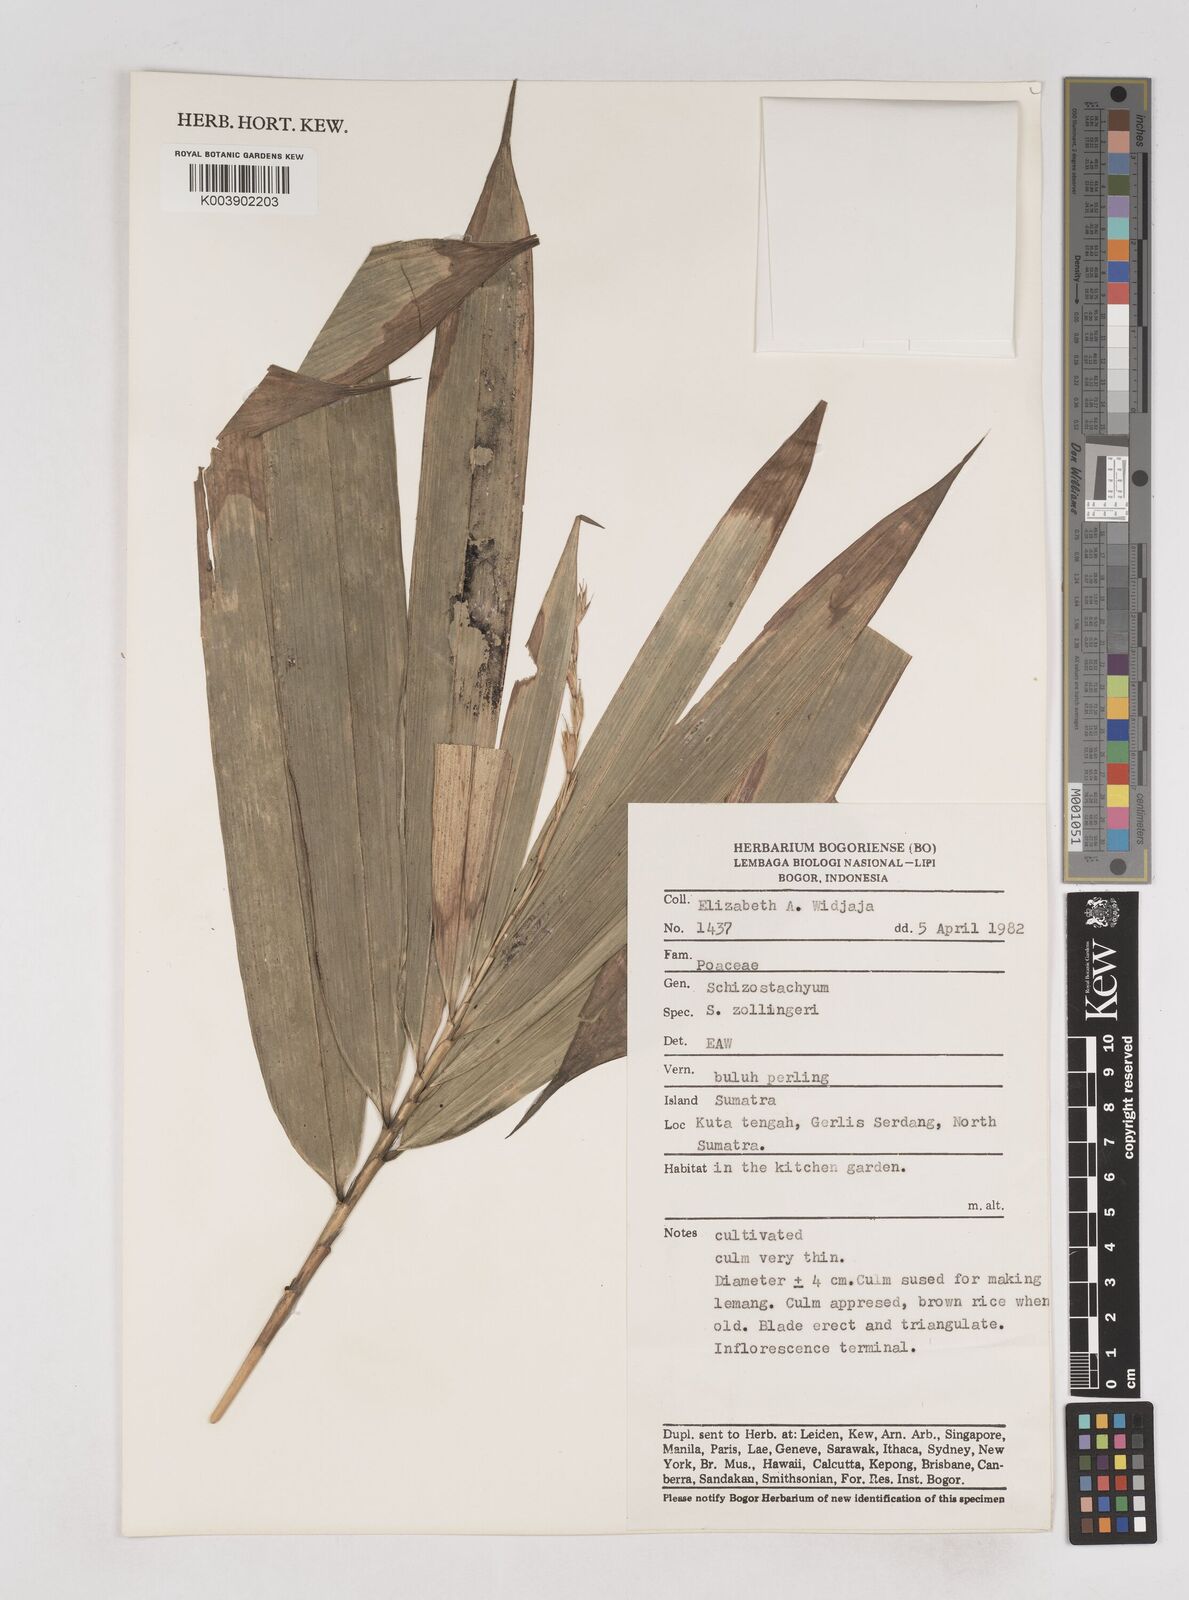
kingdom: Plantae
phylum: Tracheophyta
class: Liliopsida
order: Poales
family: Poaceae
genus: Schizostachyum
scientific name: Schizostachyum latifolium
